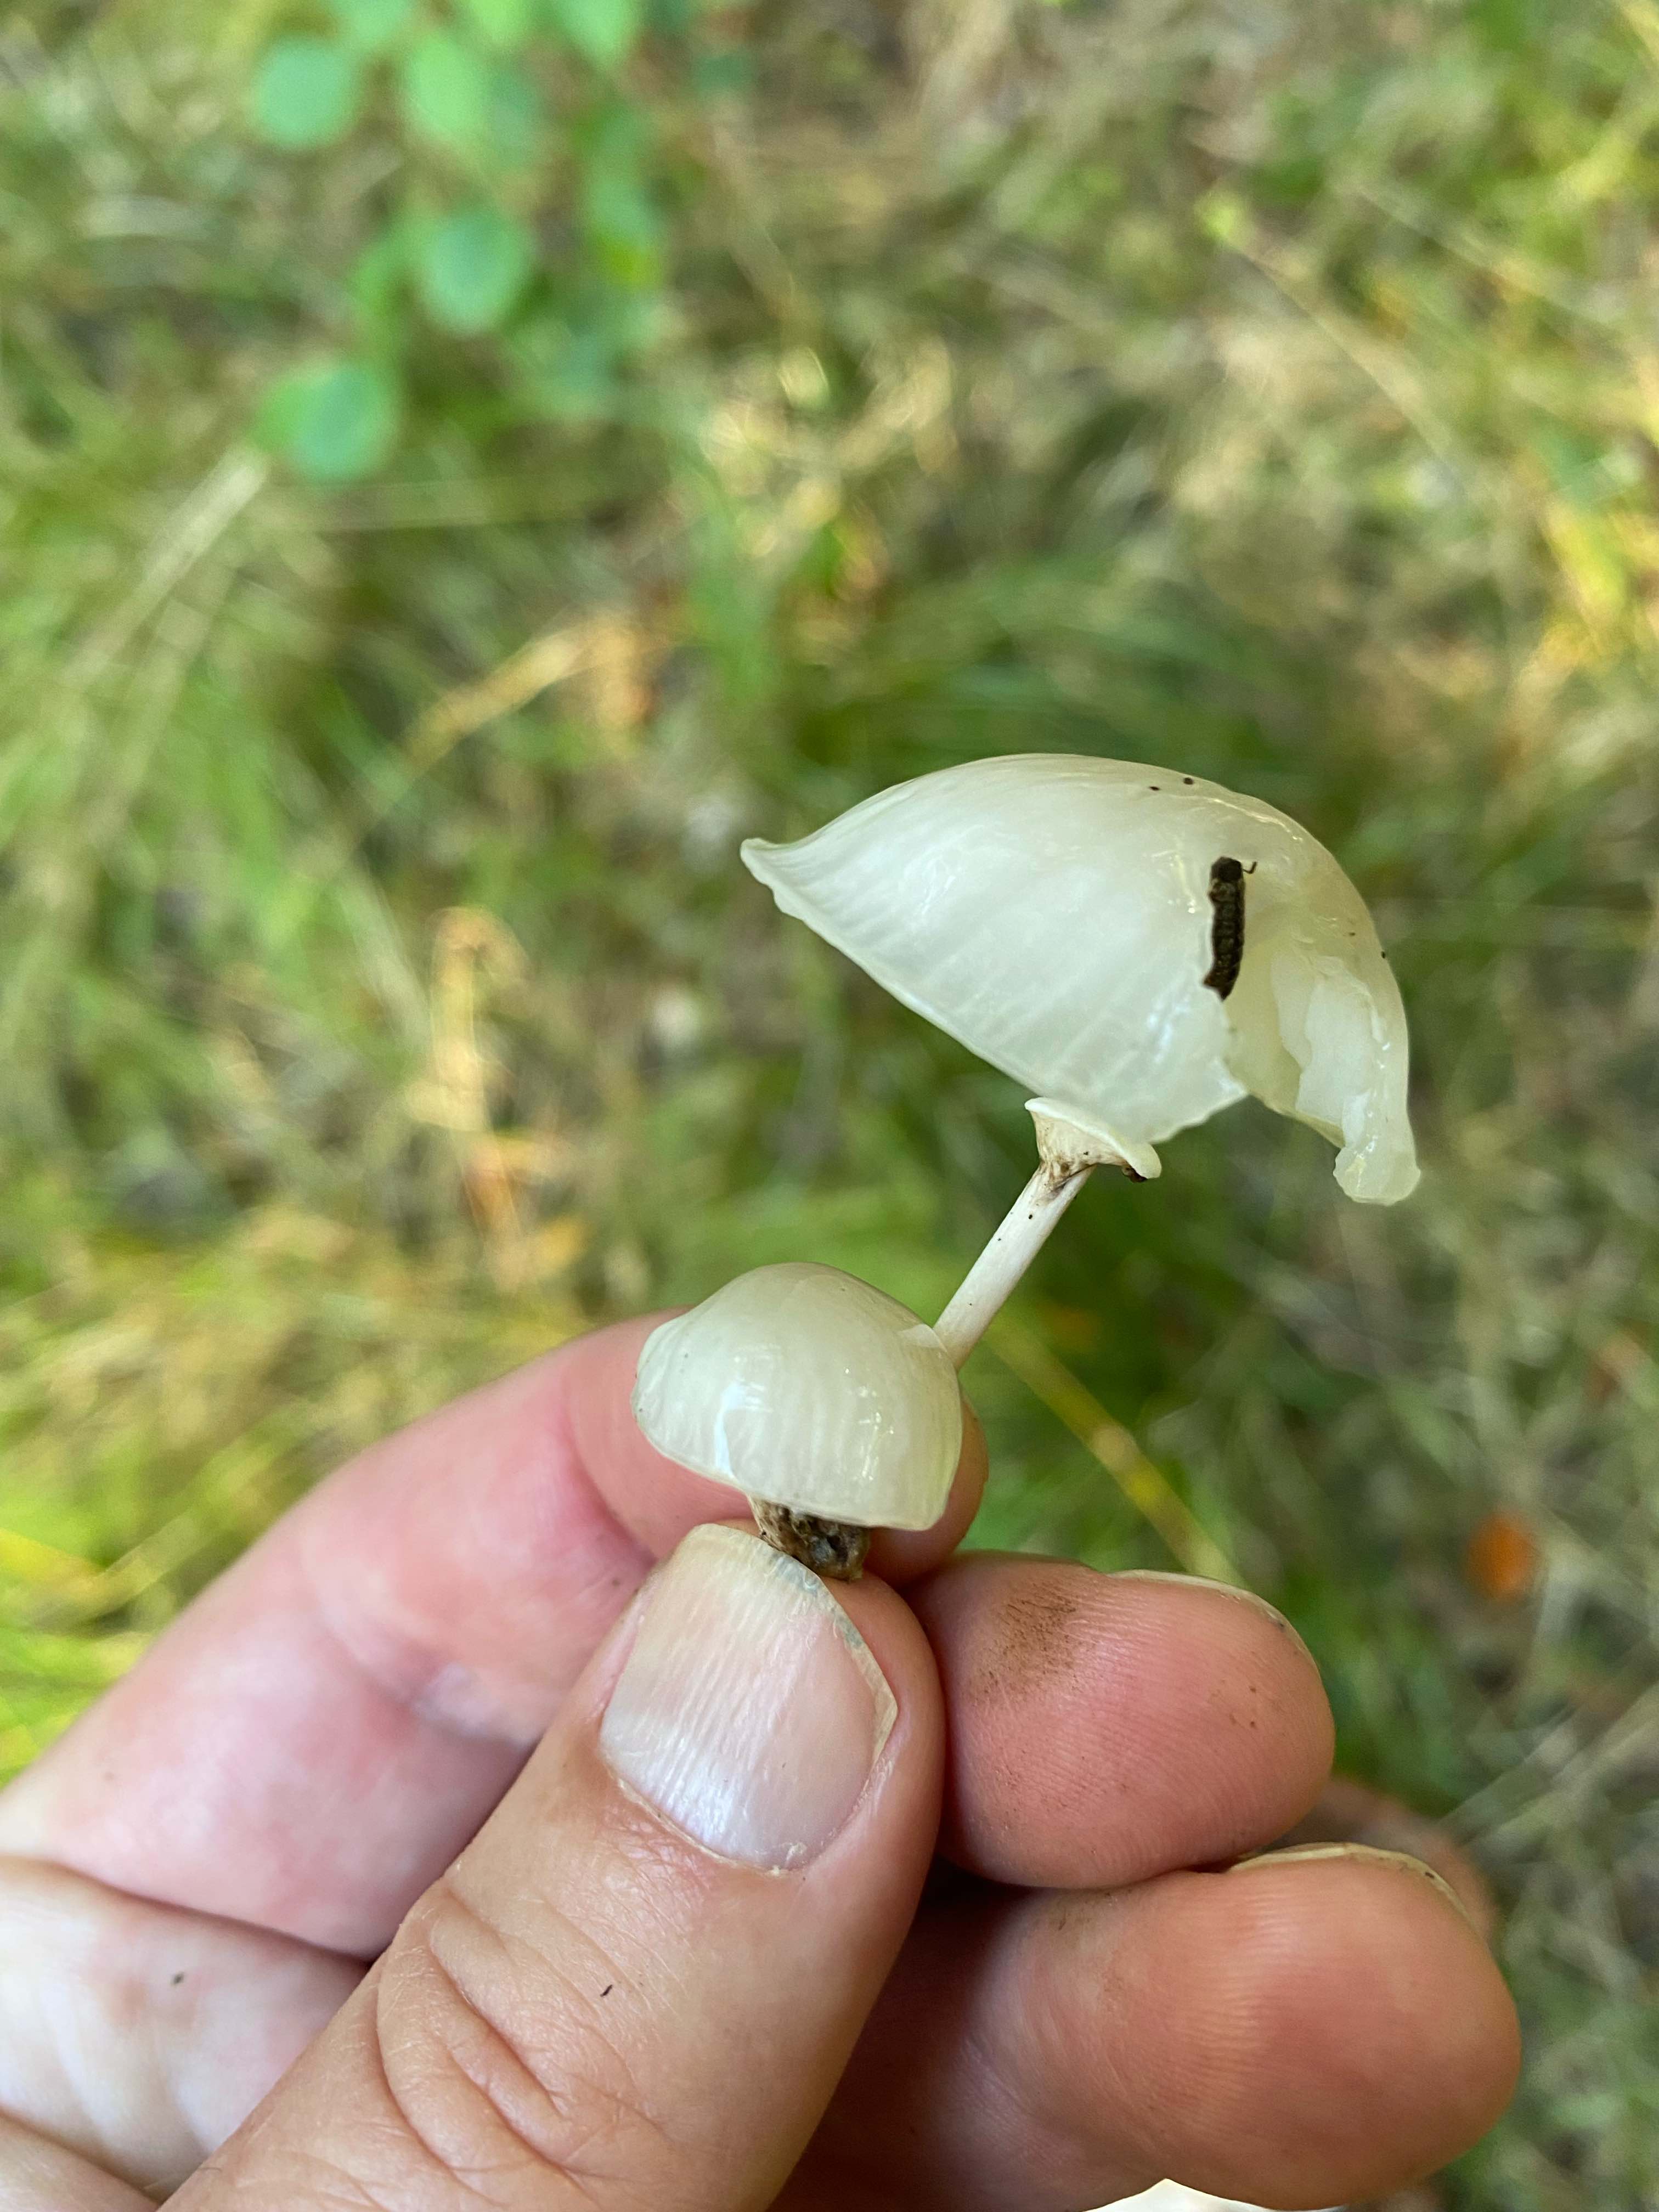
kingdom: Fungi
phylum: Basidiomycota
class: Agaricomycetes
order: Agaricales
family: Physalacriaceae
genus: Mucidula
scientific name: Mucidula mucida
